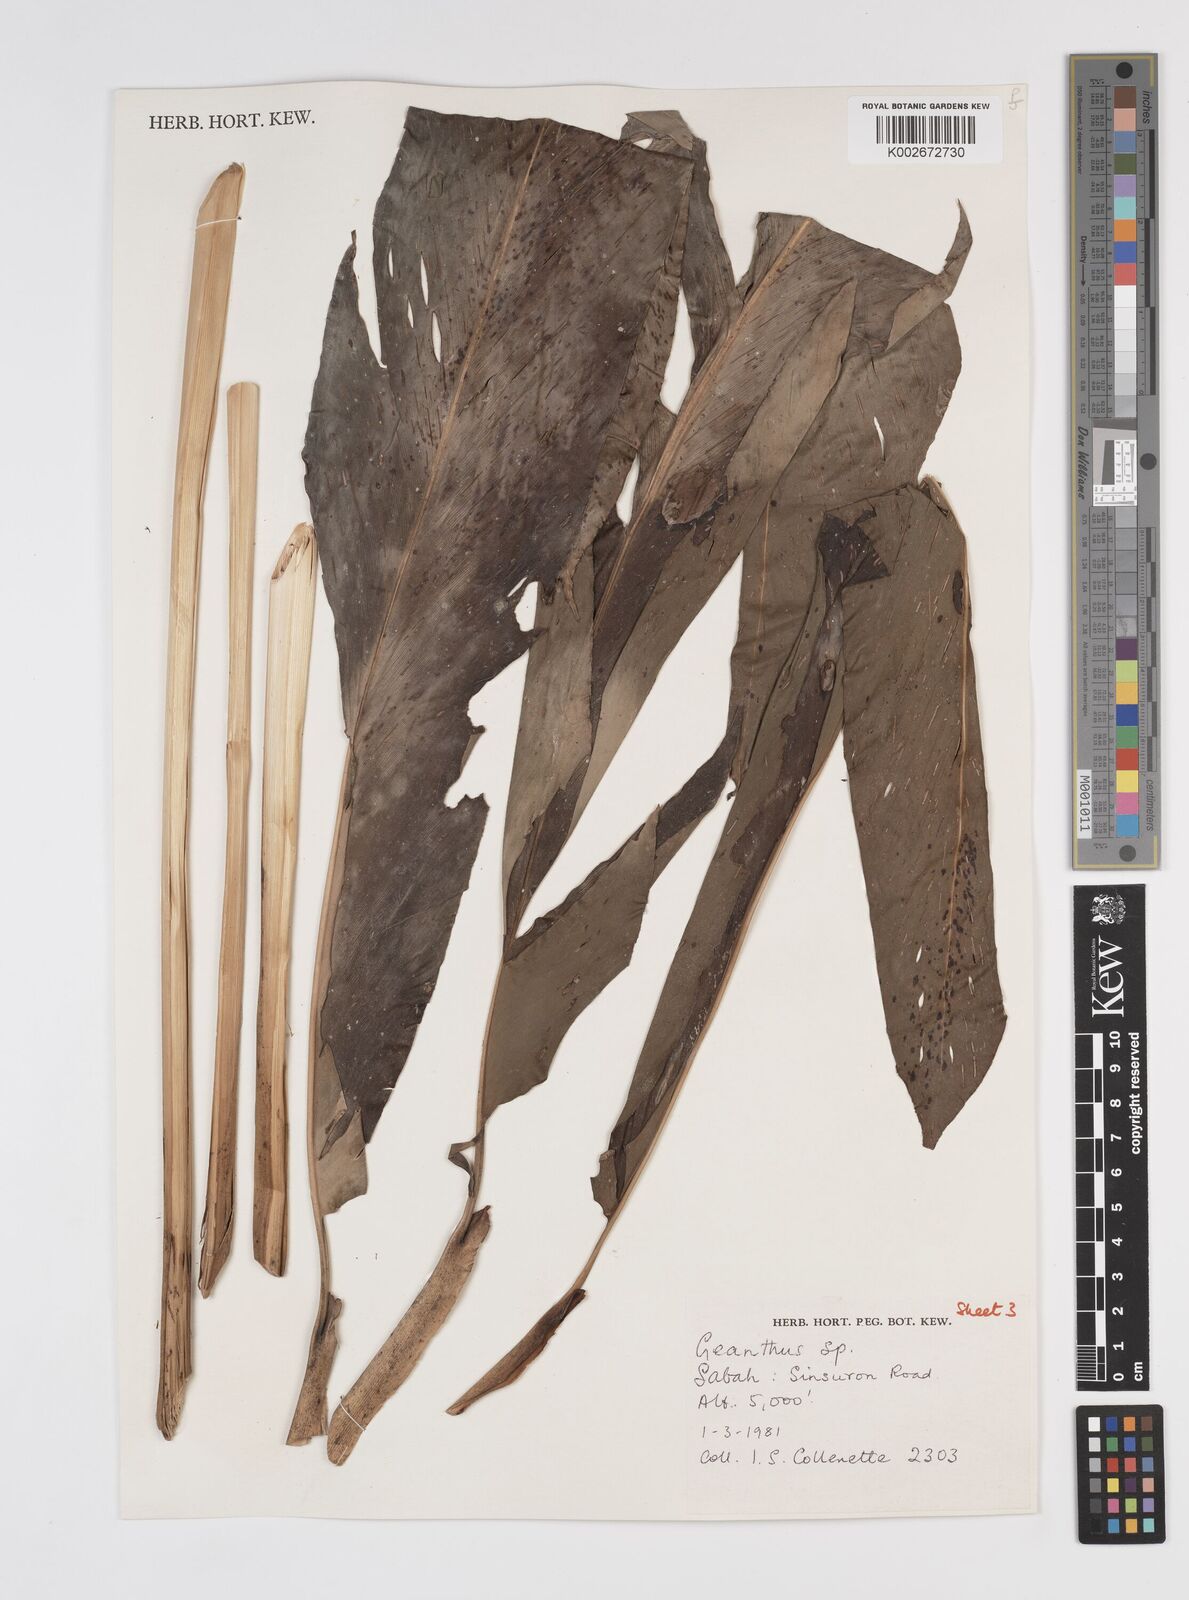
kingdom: Plantae
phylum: Tracheophyta
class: Liliopsida
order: Zingiberales
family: Zingiberaceae
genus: Etlingera
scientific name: Etlingera pubescens
